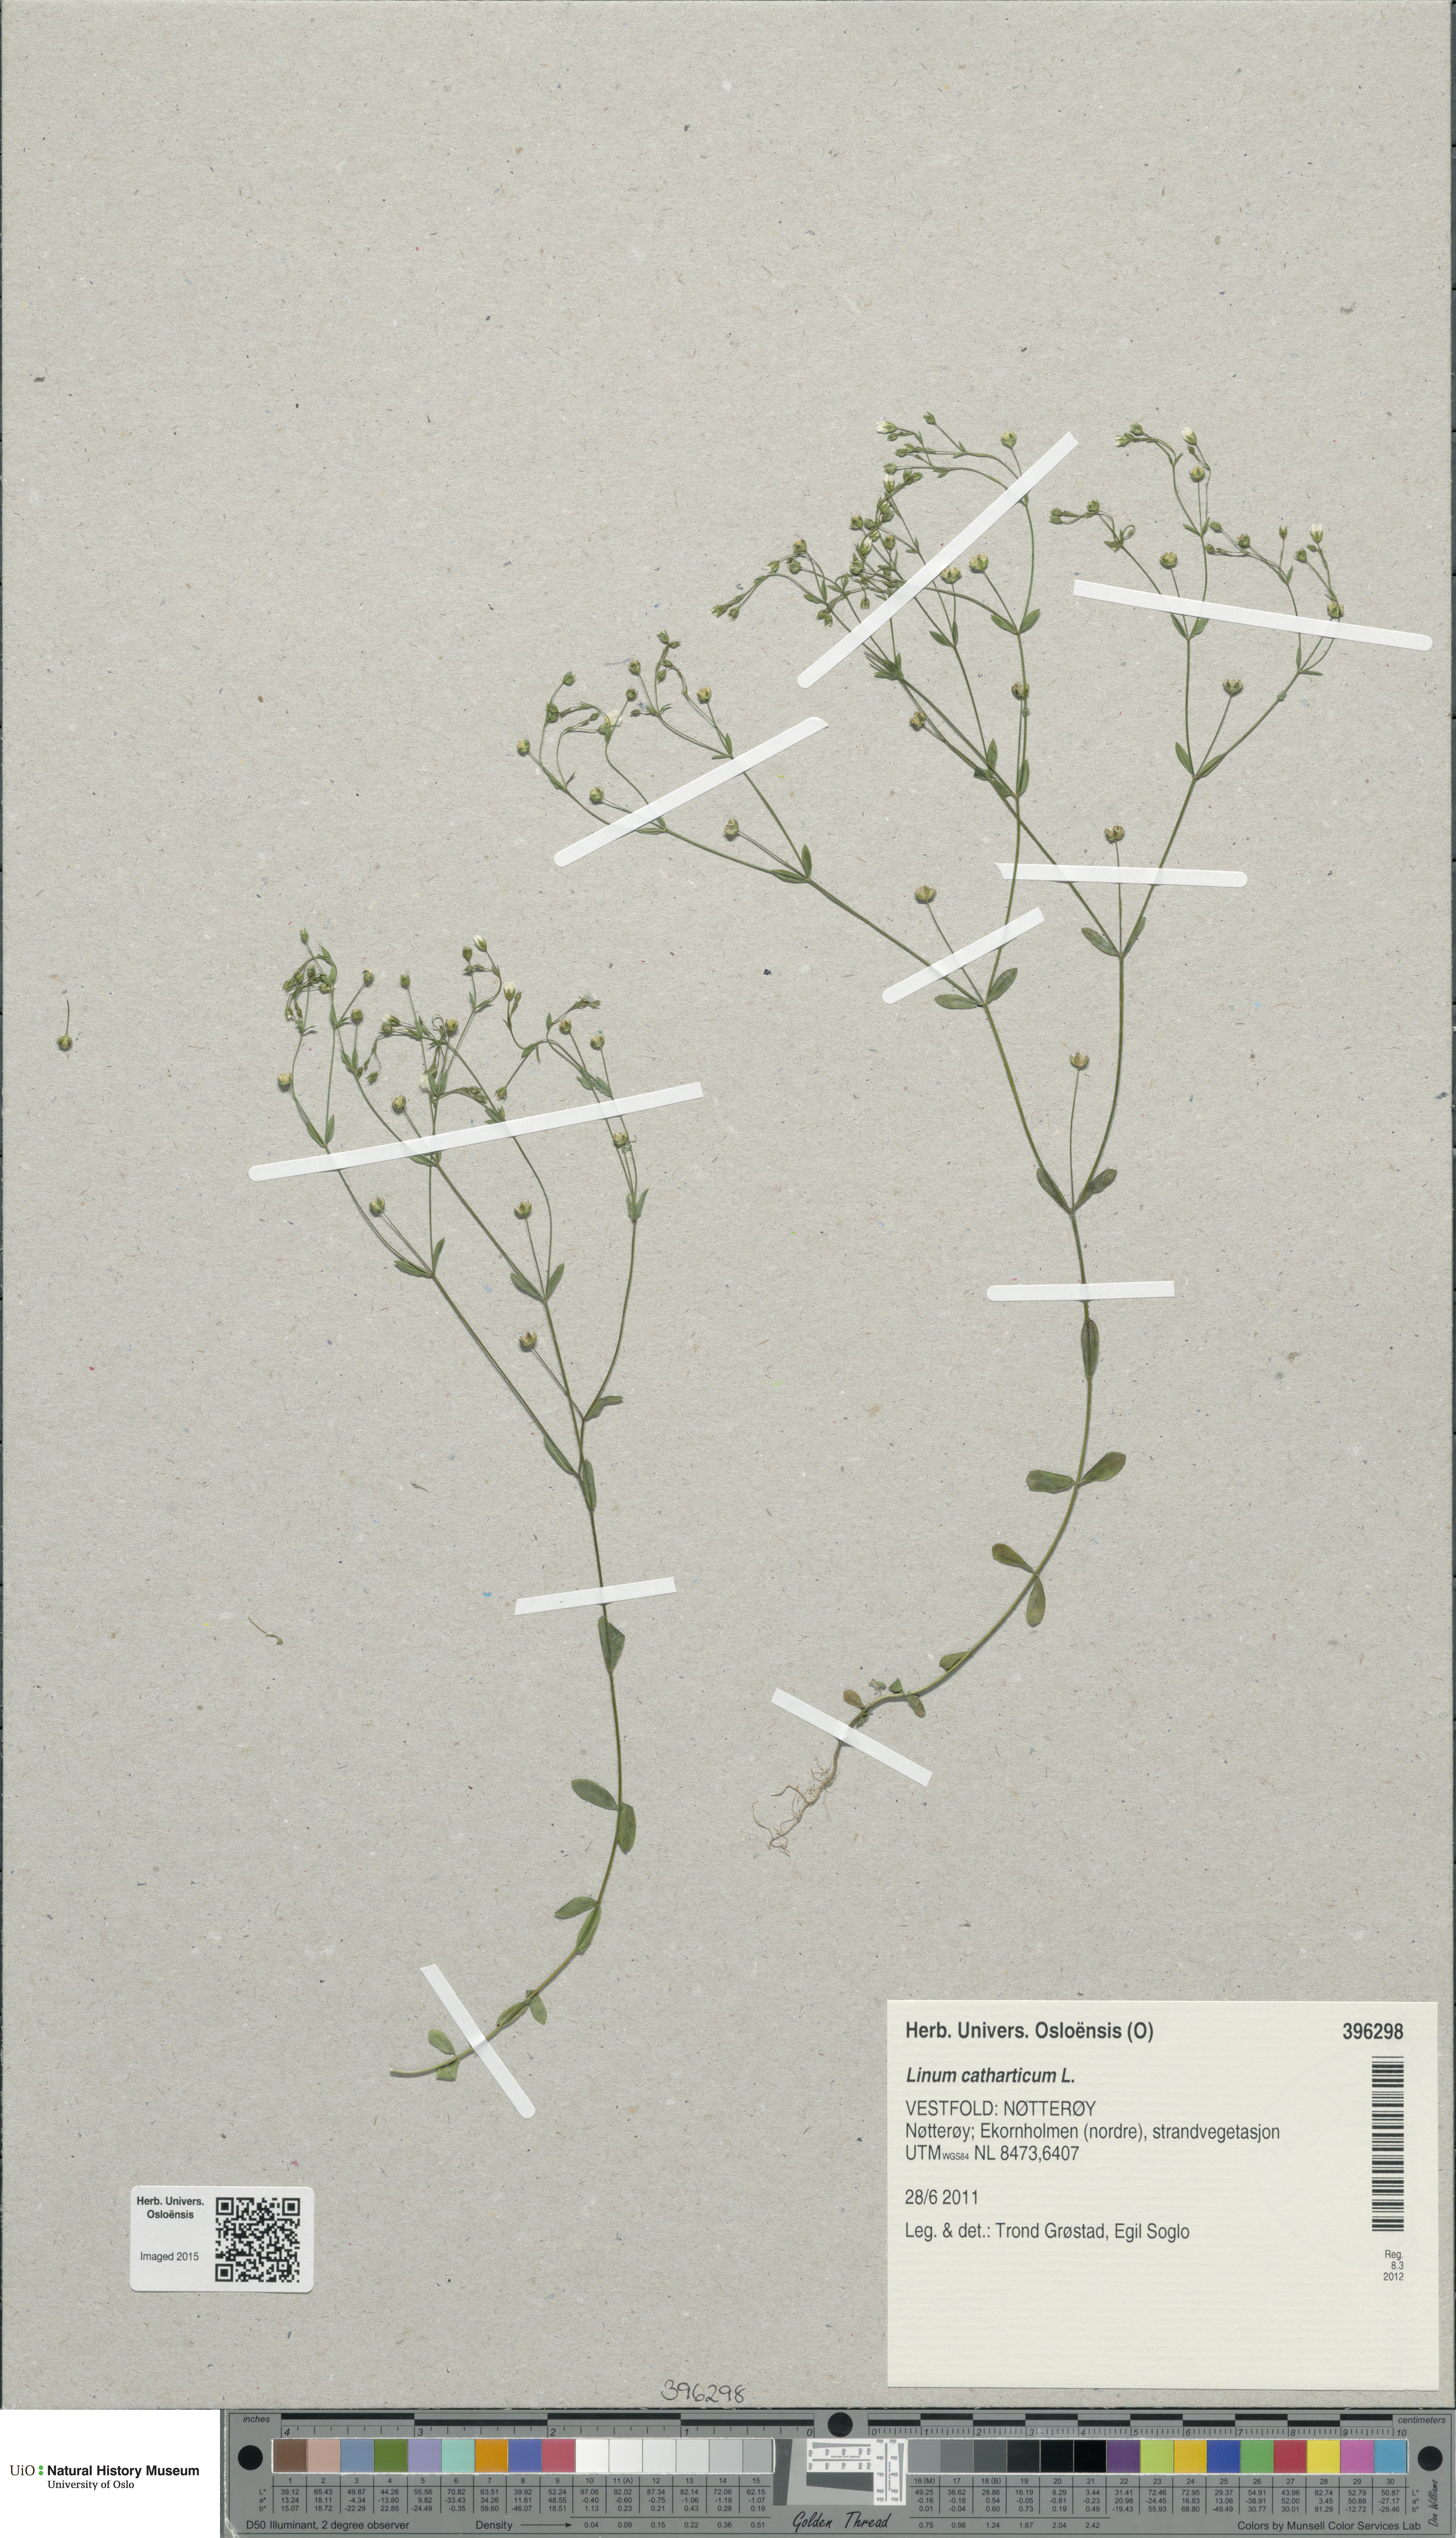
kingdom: Plantae
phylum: Tracheophyta
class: Magnoliopsida
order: Malpighiales
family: Linaceae
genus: Linum
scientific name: Linum catharticum
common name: Fairy flax
